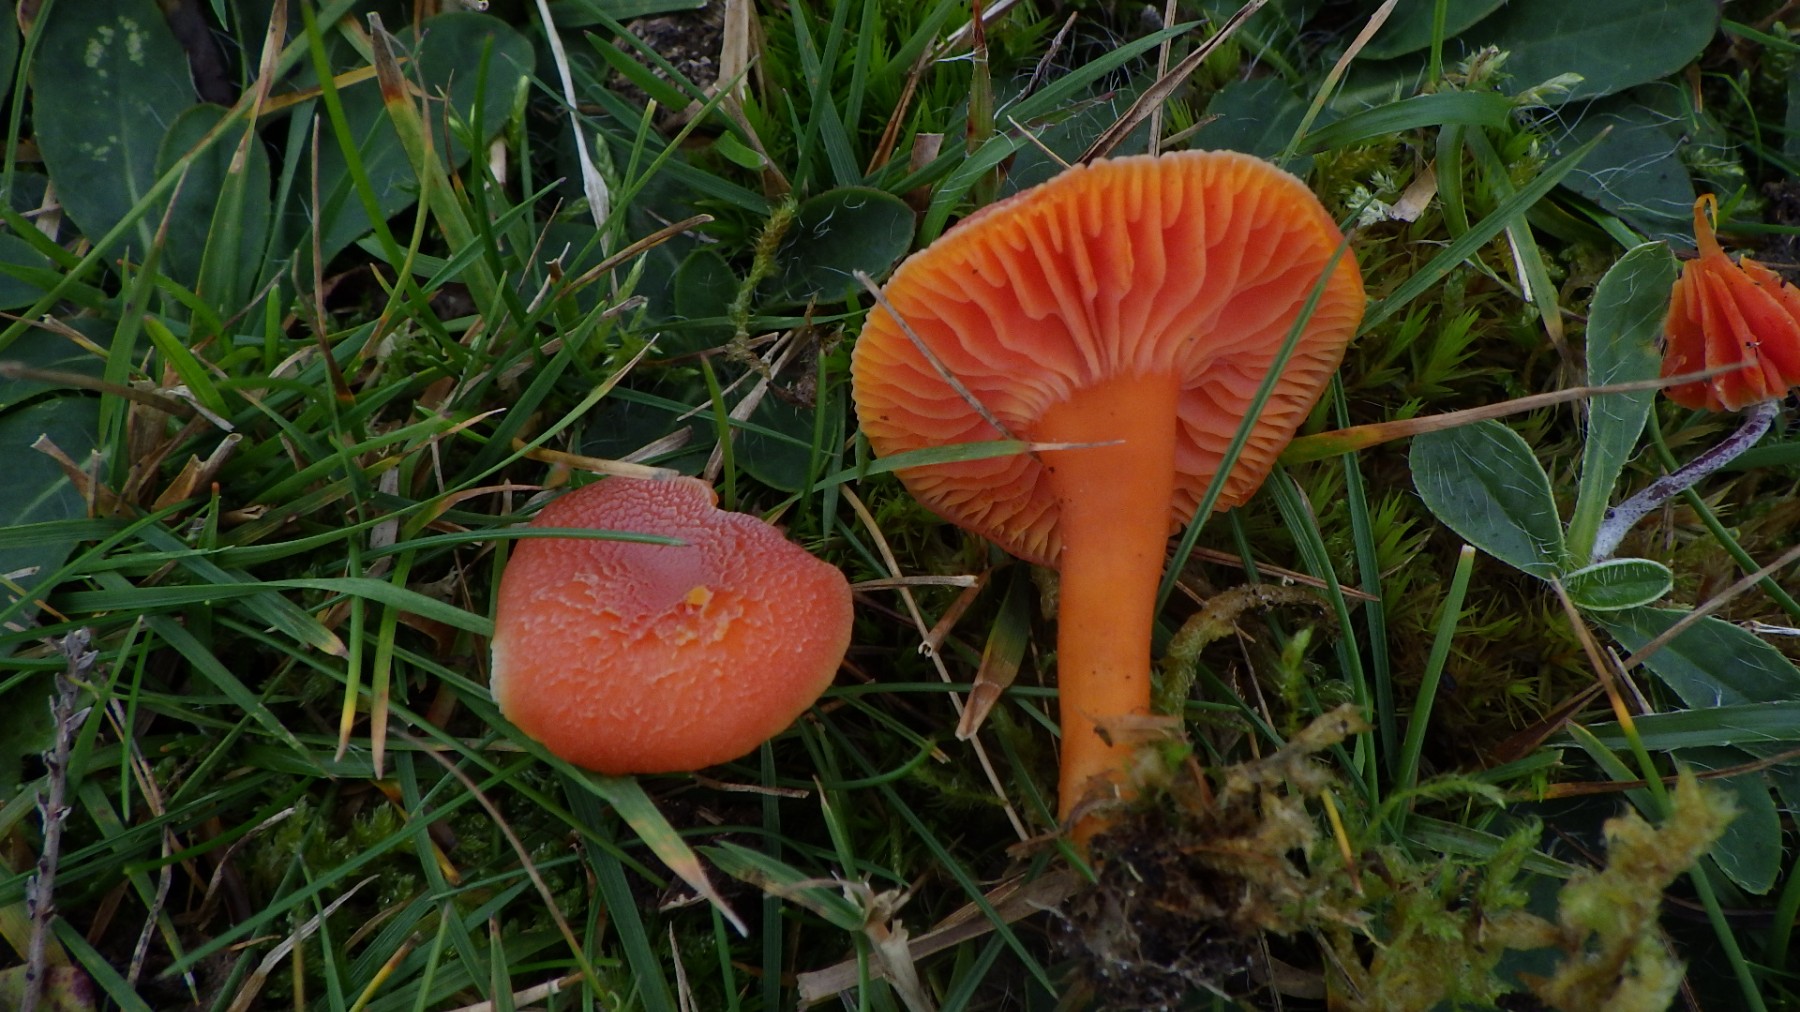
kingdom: Fungi
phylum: Basidiomycota
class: Agaricomycetes
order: Agaricales
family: Hygrophoraceae
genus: Hygrocybe
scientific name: Hygrocybe miniata
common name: mønje-vokshat
